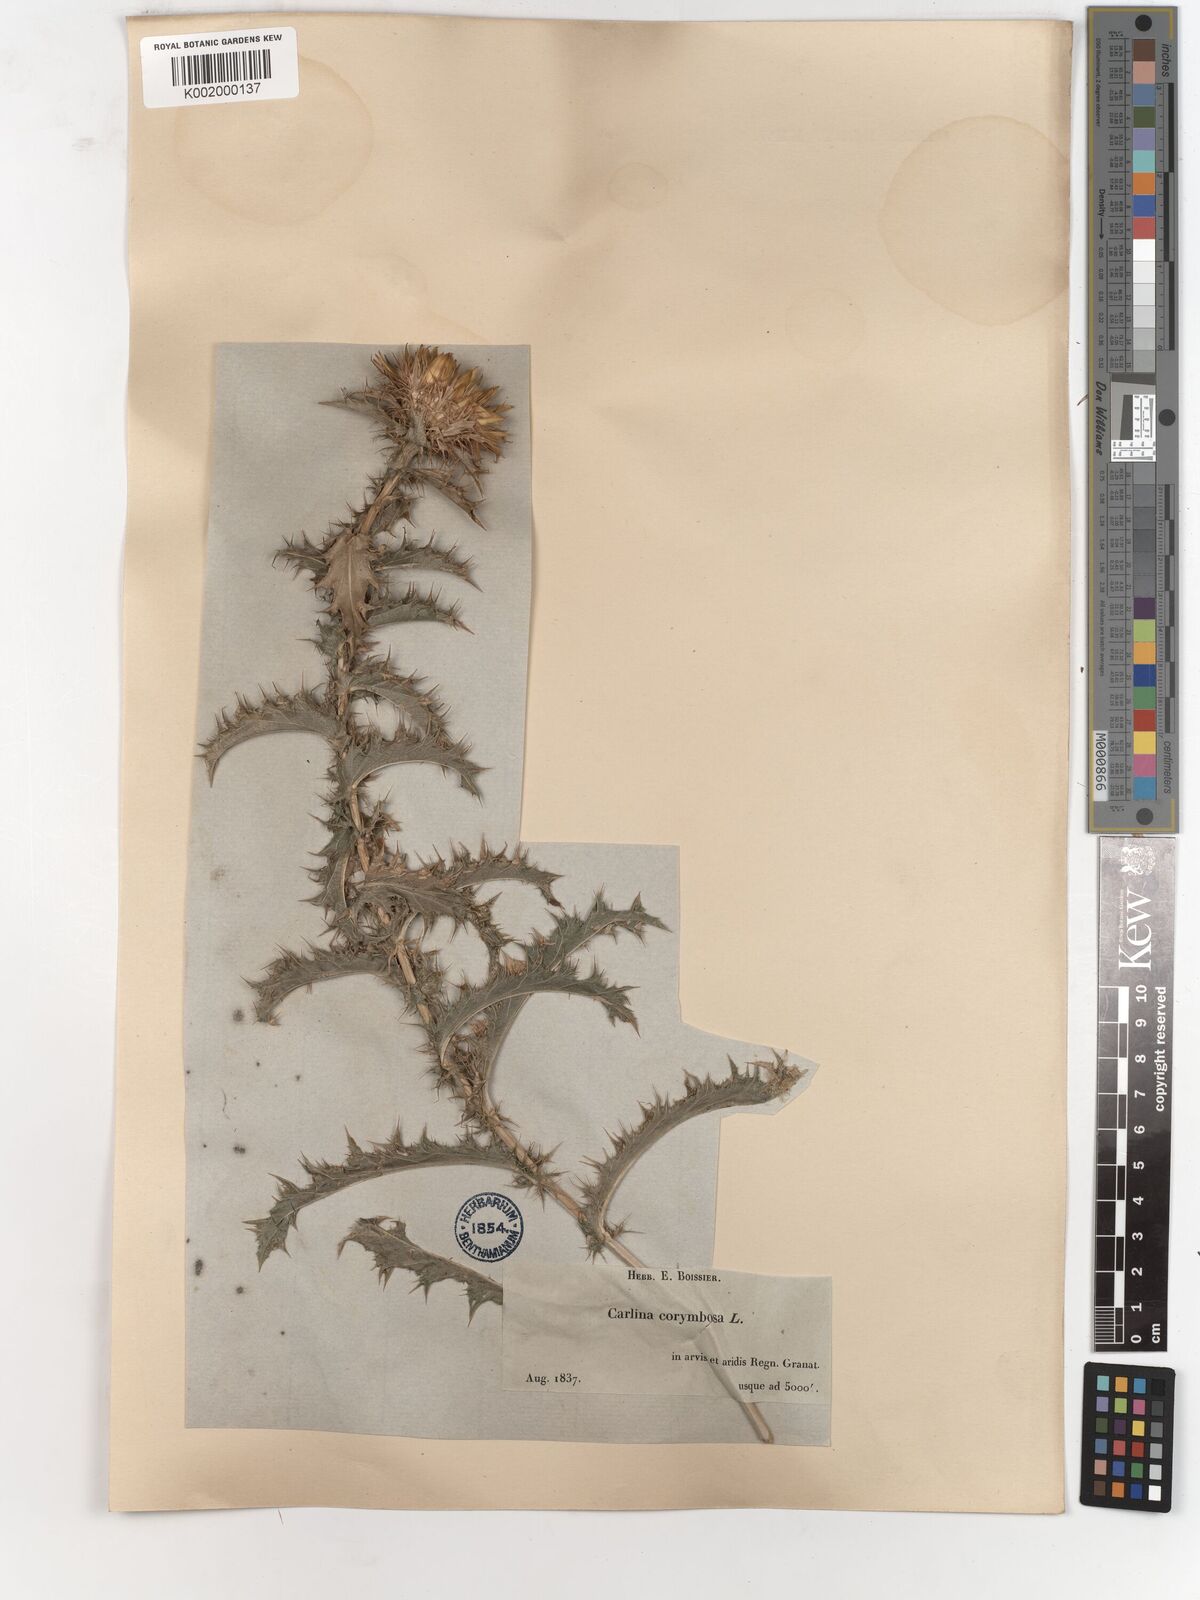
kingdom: Plantae
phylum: Tracheophyta
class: Magnoliopsida
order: Asterales
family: Asteraceae
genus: Carlina
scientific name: Carlina corymbosa
